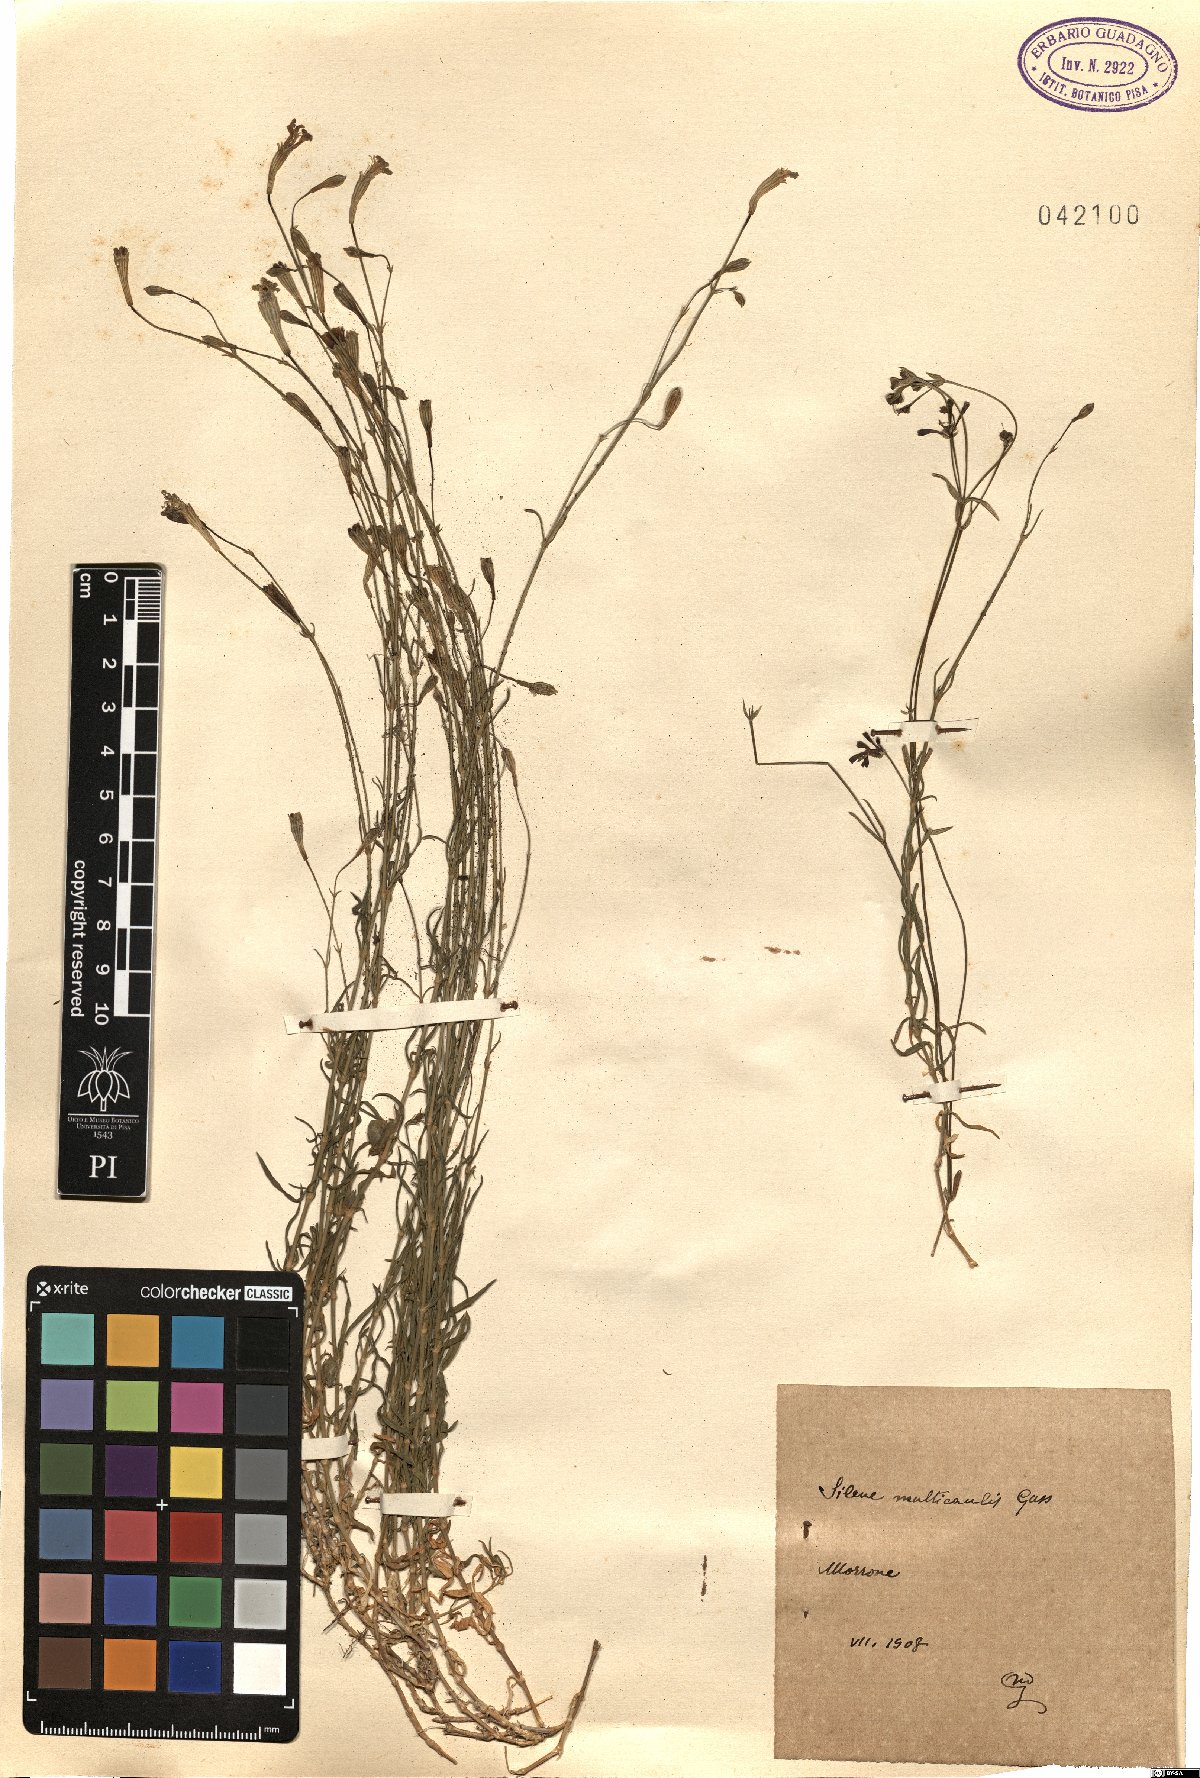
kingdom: Plantae
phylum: Tracheophyta
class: Magnoliopsida
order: Caryophyllales
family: Caryophyllaceae
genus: Silene
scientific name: Silene multicaulis
